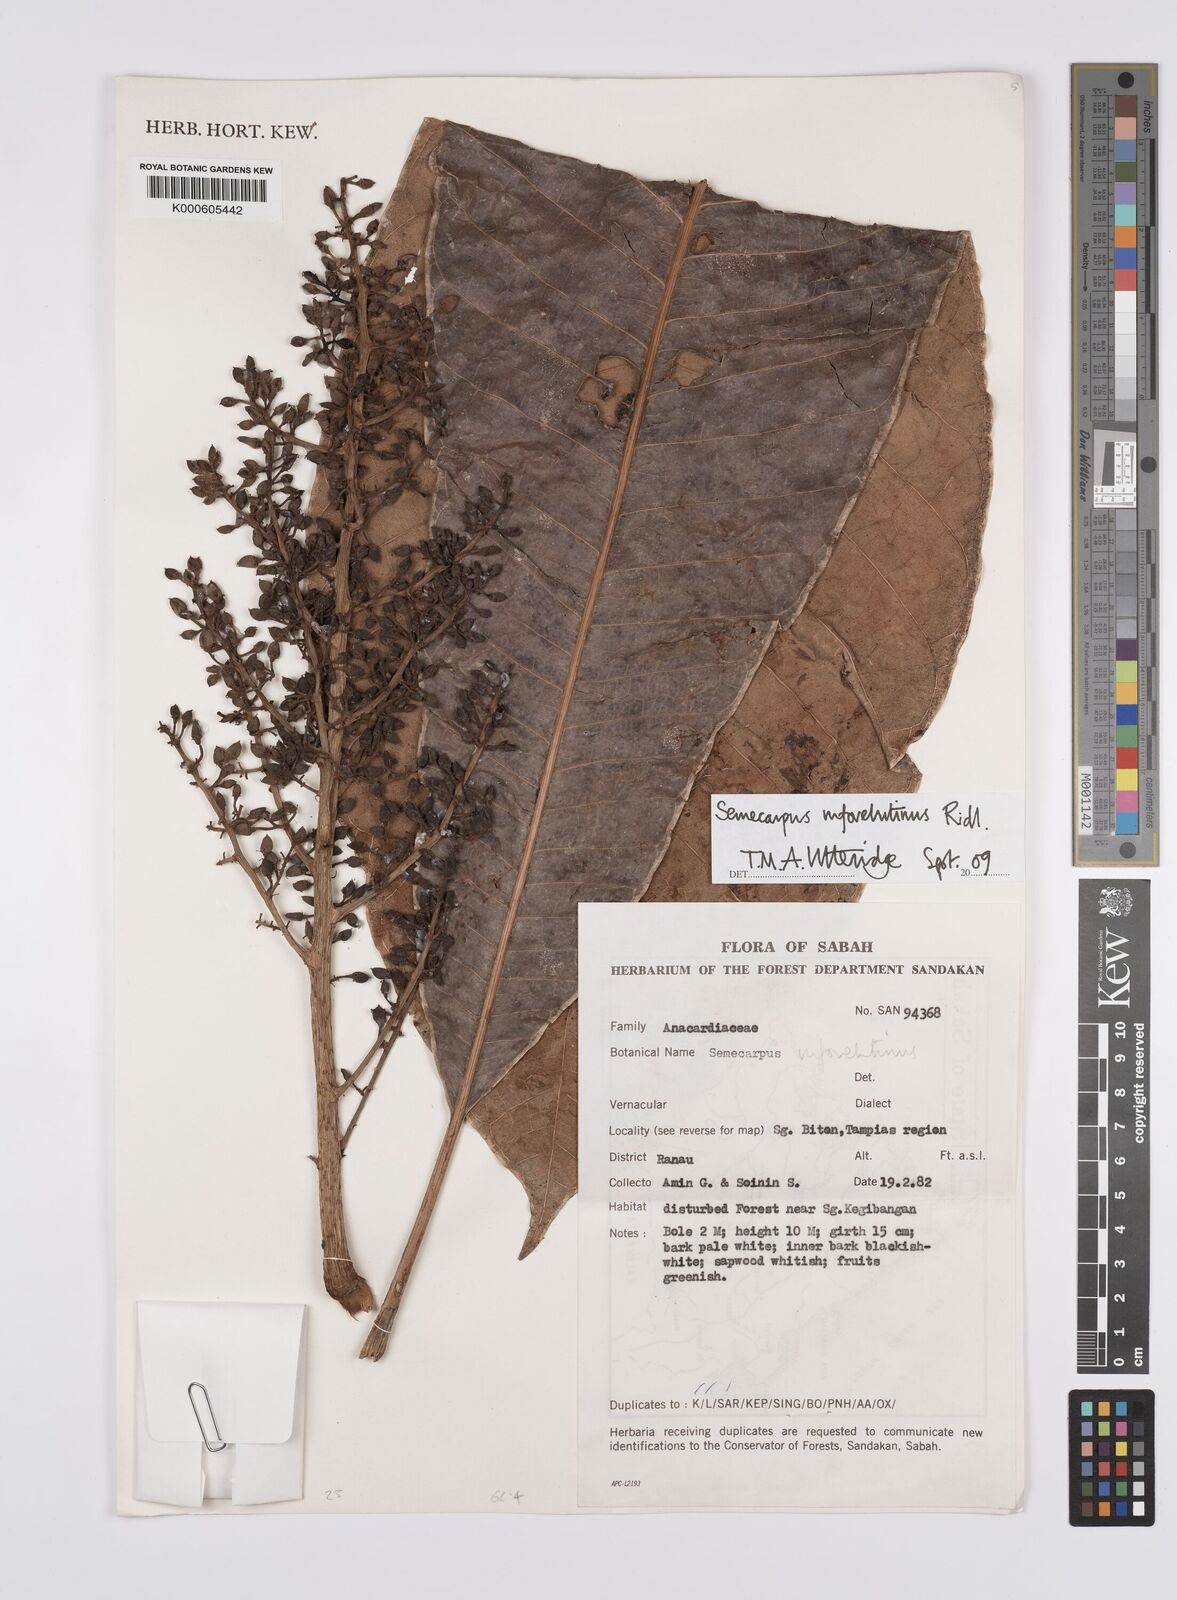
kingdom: Plantae
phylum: Tracheophyta
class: Magnoliopsida
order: Sapindales
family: Anacardiaceae
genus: Semecarpus
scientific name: Semecarpus rufovelutinus
